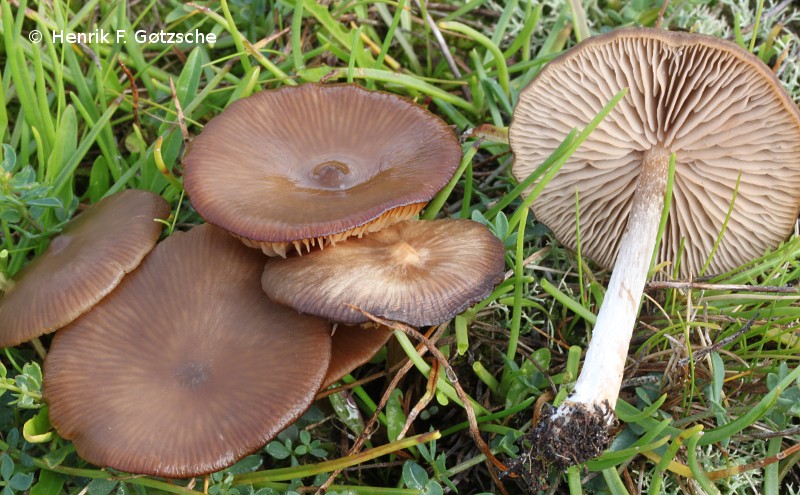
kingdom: Fungi
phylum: Basidiomycota
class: Agaricomycetes
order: Agaricales
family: Entolomataceae
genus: Entoloma
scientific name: Entoloma sericeum
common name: silkeglinsende rødblad
